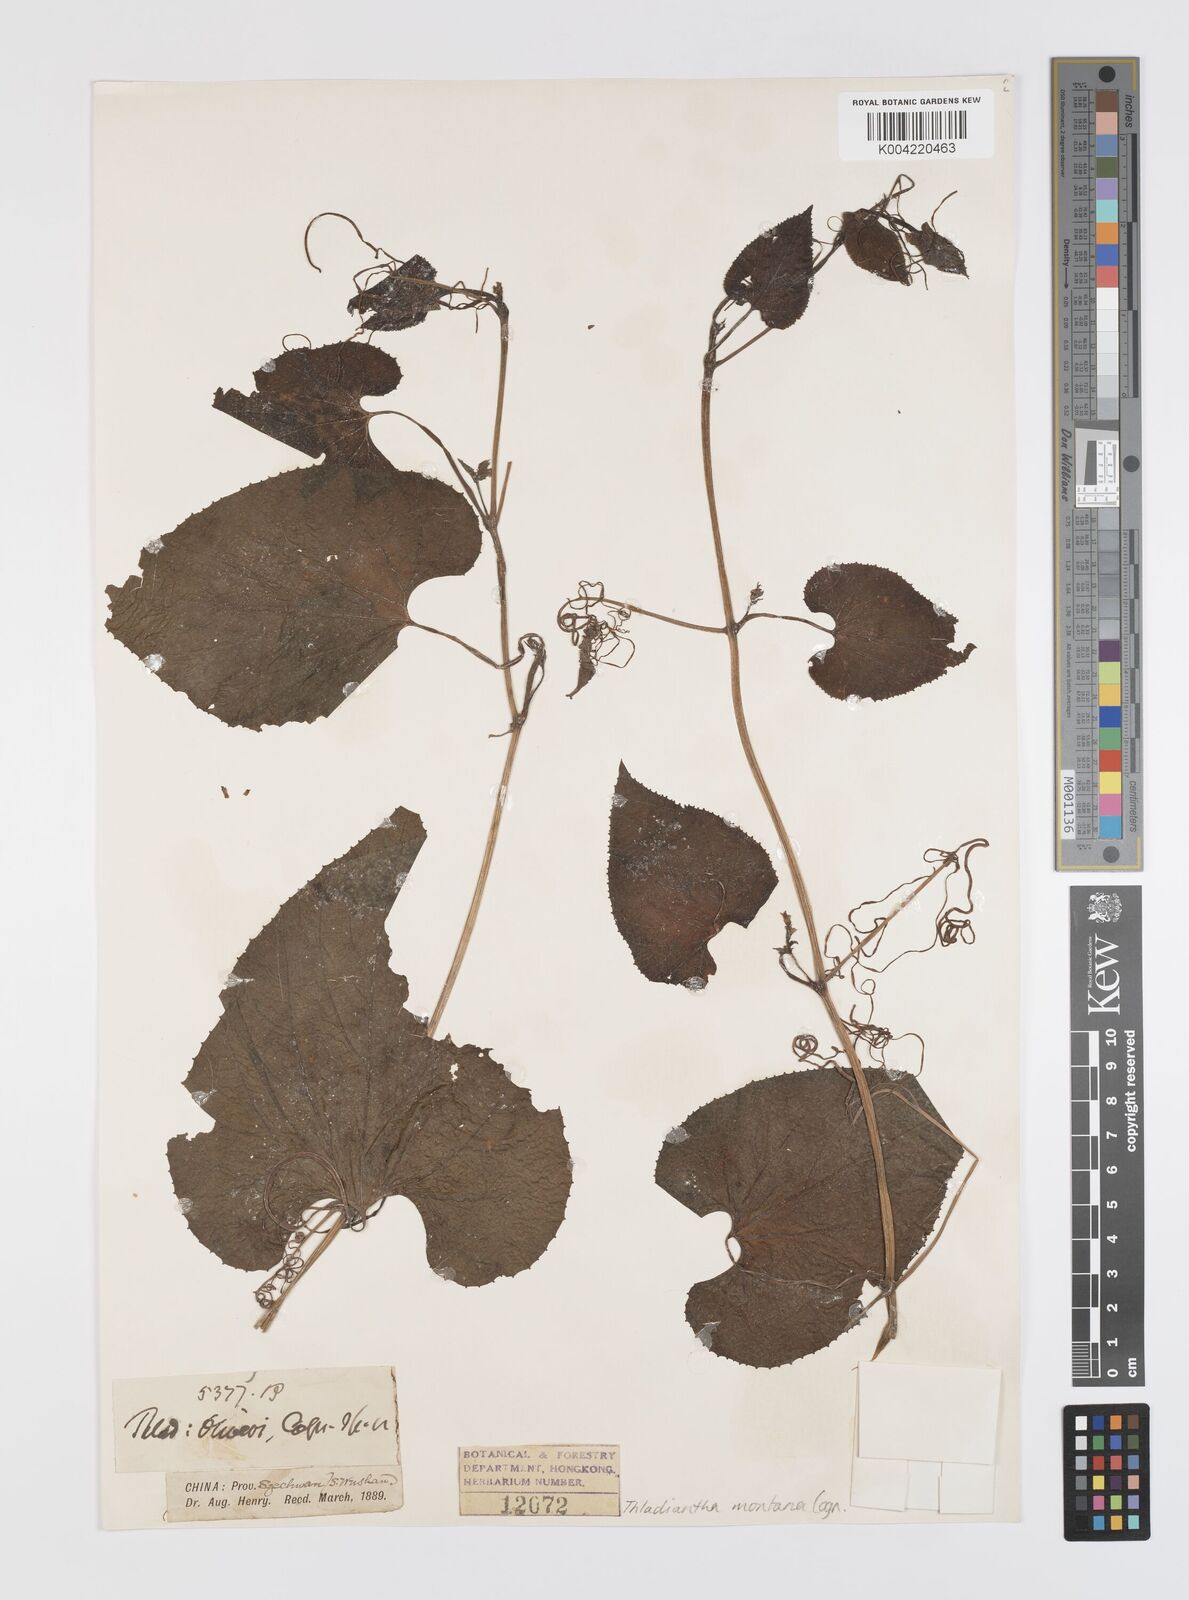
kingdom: Plantae
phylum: Tracheophyta
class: Magnoliopsida
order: Cucurbitales
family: Cucurbitaceae
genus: Thladiantha
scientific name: Thladiantha montana
